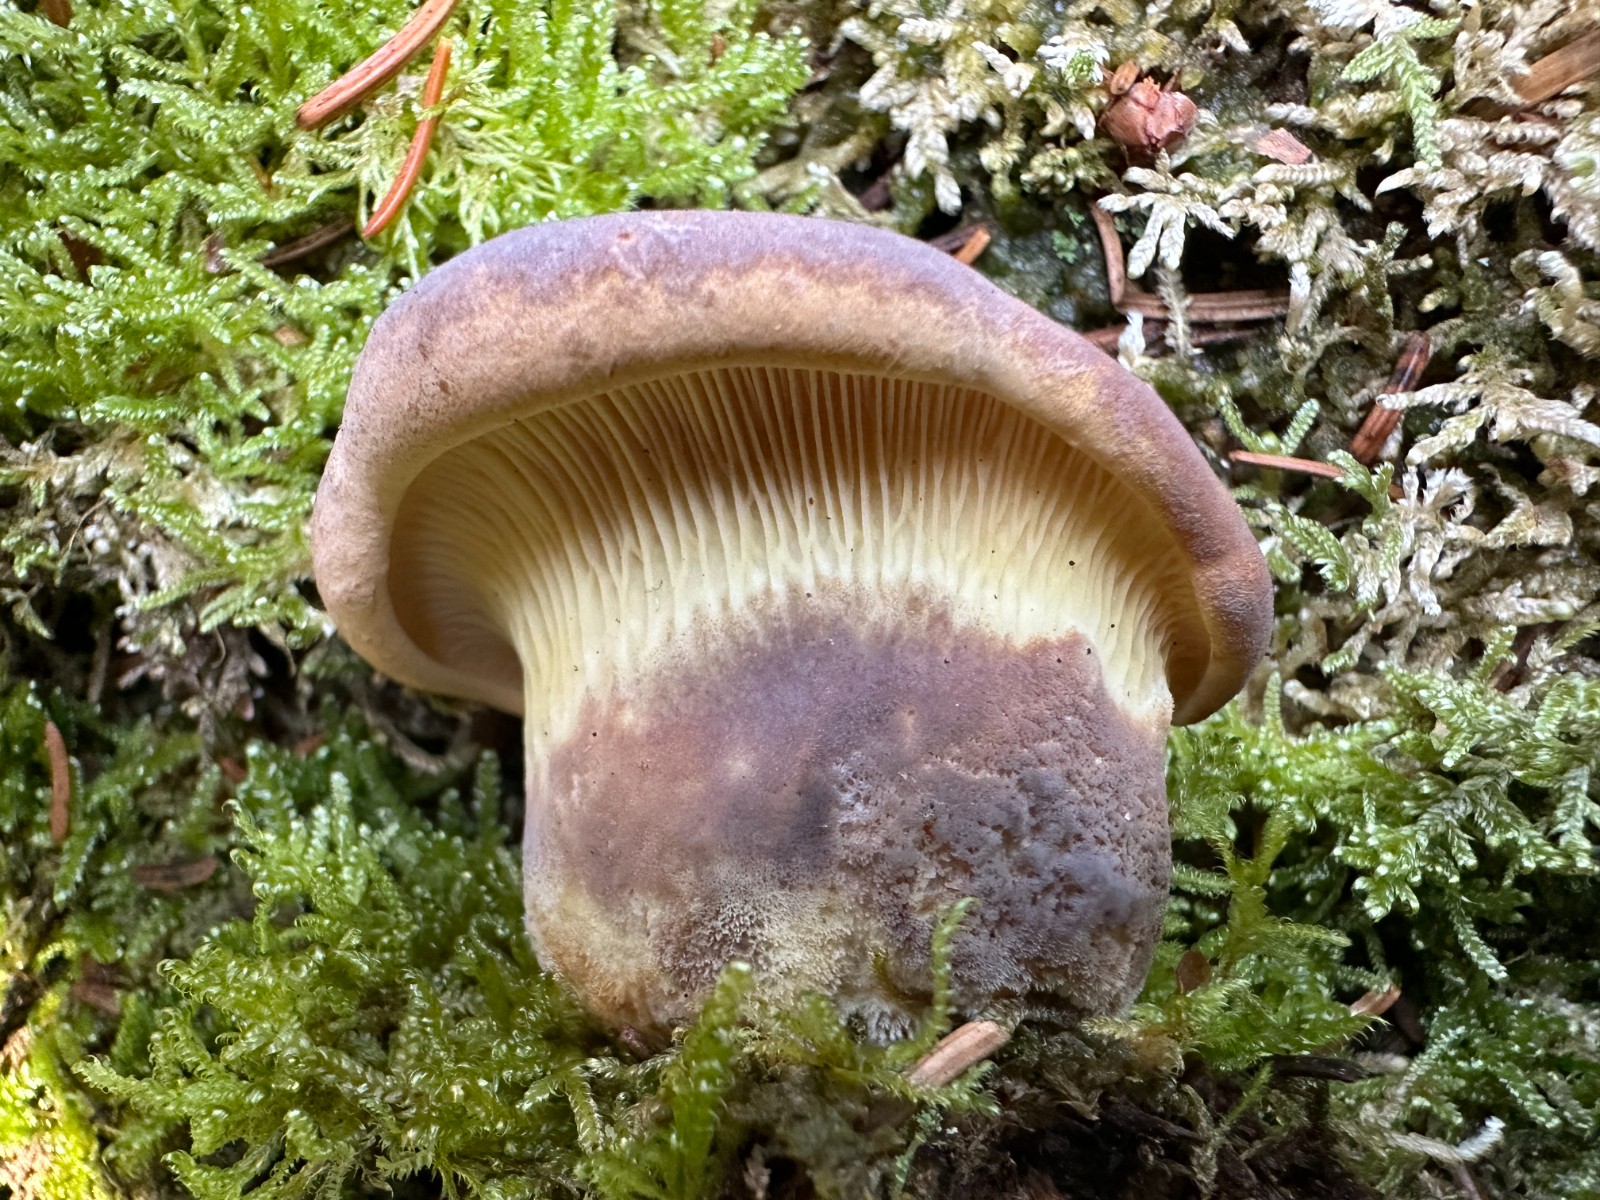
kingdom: Fungi
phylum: Basidiomycota
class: Agaricomycetes
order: Boletales
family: Tapinellaceae
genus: Tapinella
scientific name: Tapinella atrotomentosa
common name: sortfiltet viftesvamp
